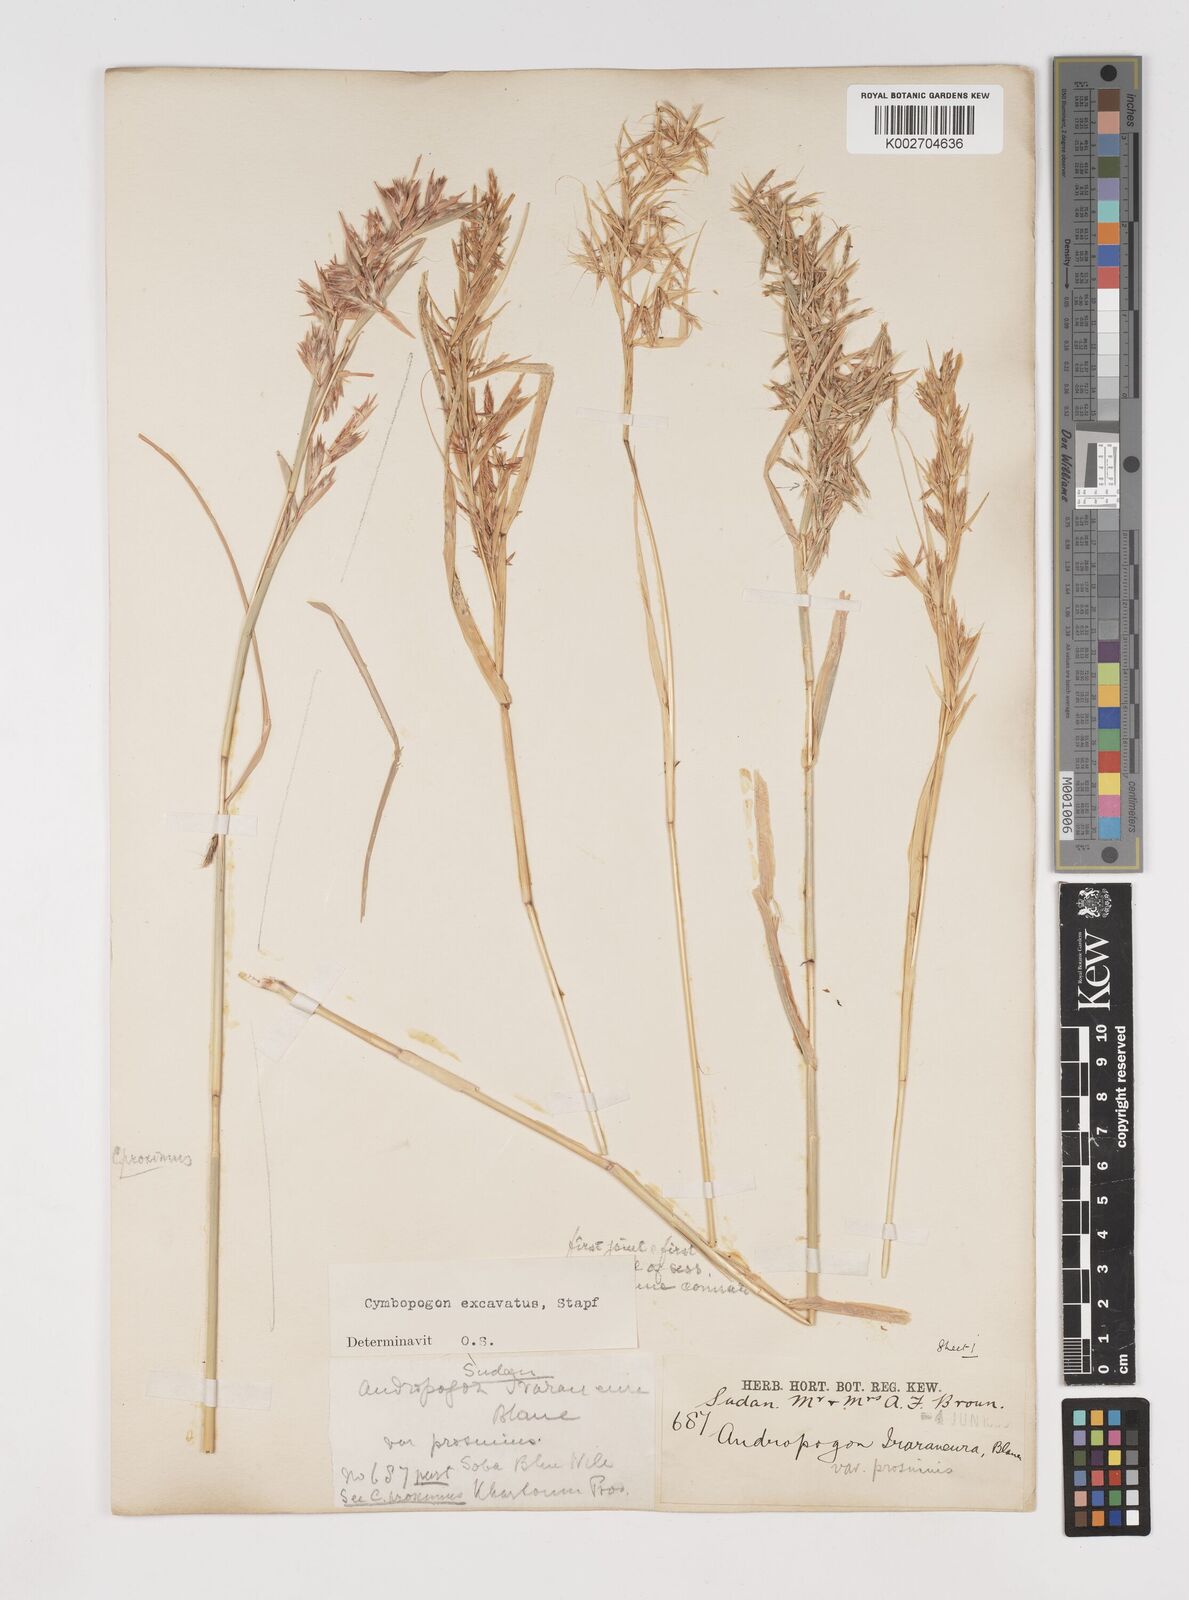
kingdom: Plantae
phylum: Tracheophyta
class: Liliopsida
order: Poales
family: Poaceae
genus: Cymbopogon
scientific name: Cymbopogon nervatus
